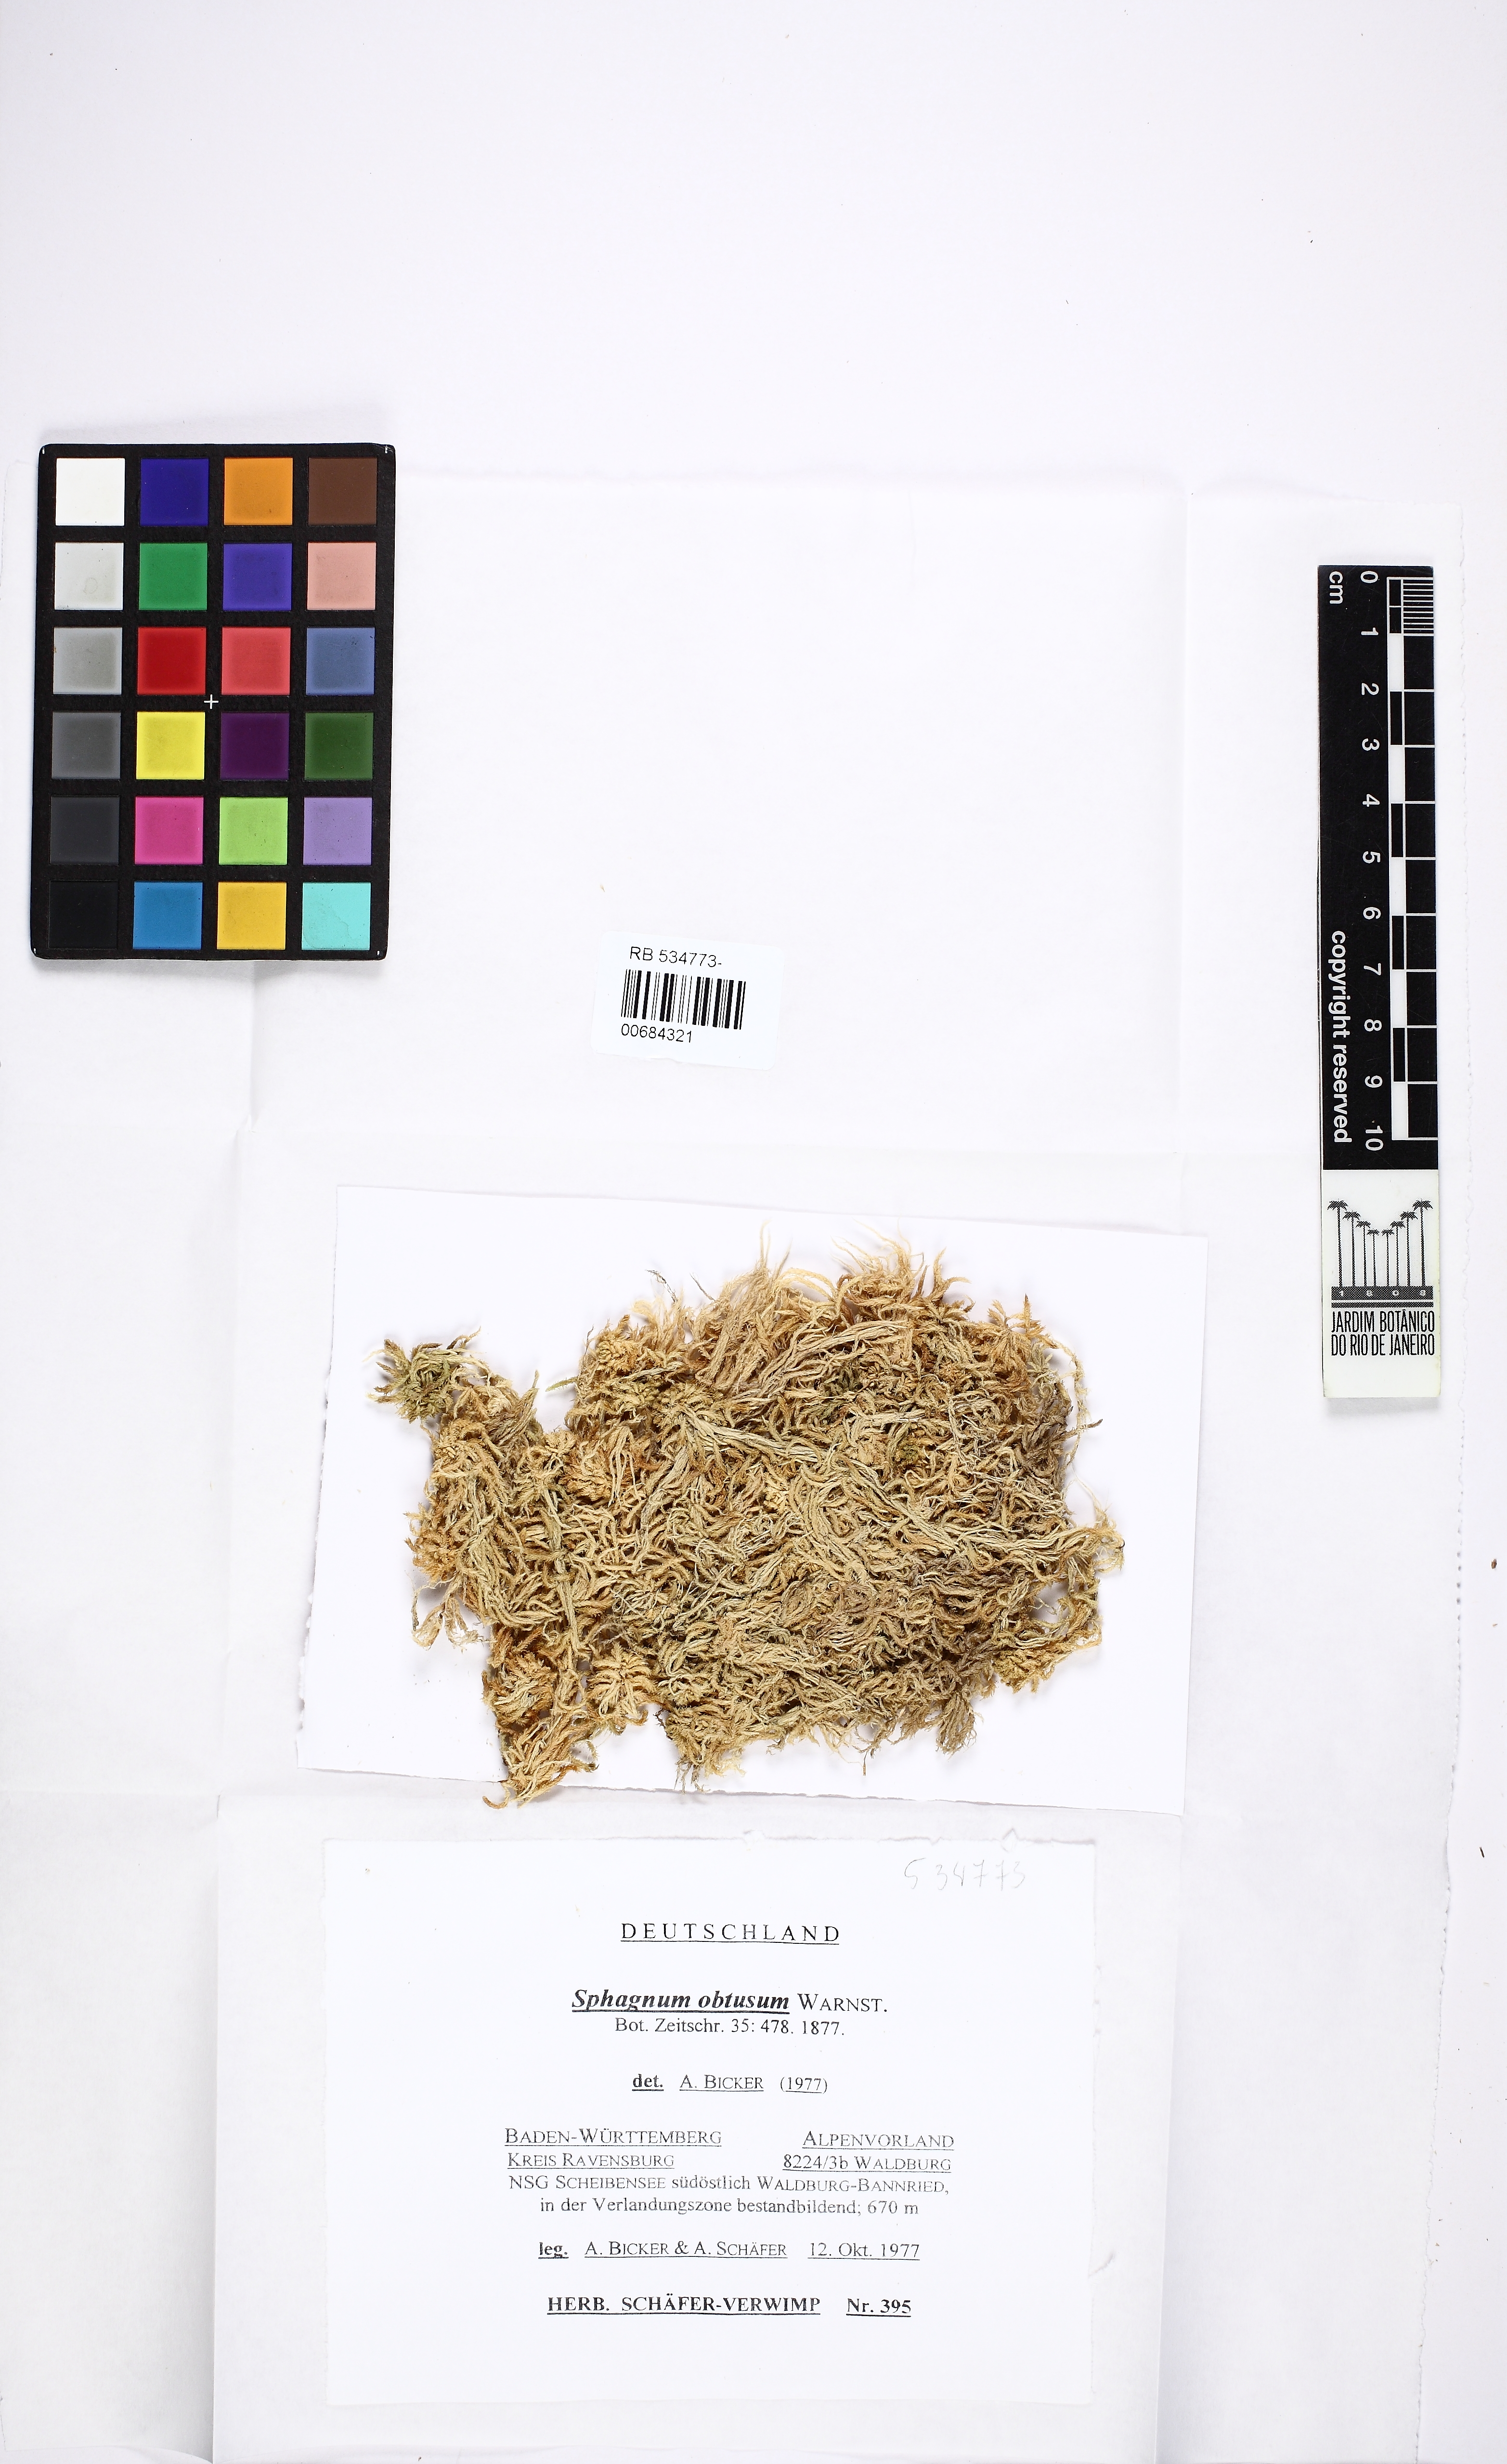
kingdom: Plantae
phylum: Bryophyta
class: Sphagnopsida
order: Sphagnales
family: Sphagnaceae
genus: Sphagnum
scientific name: Sphagnum obtusum
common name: Obtuse peat moss
